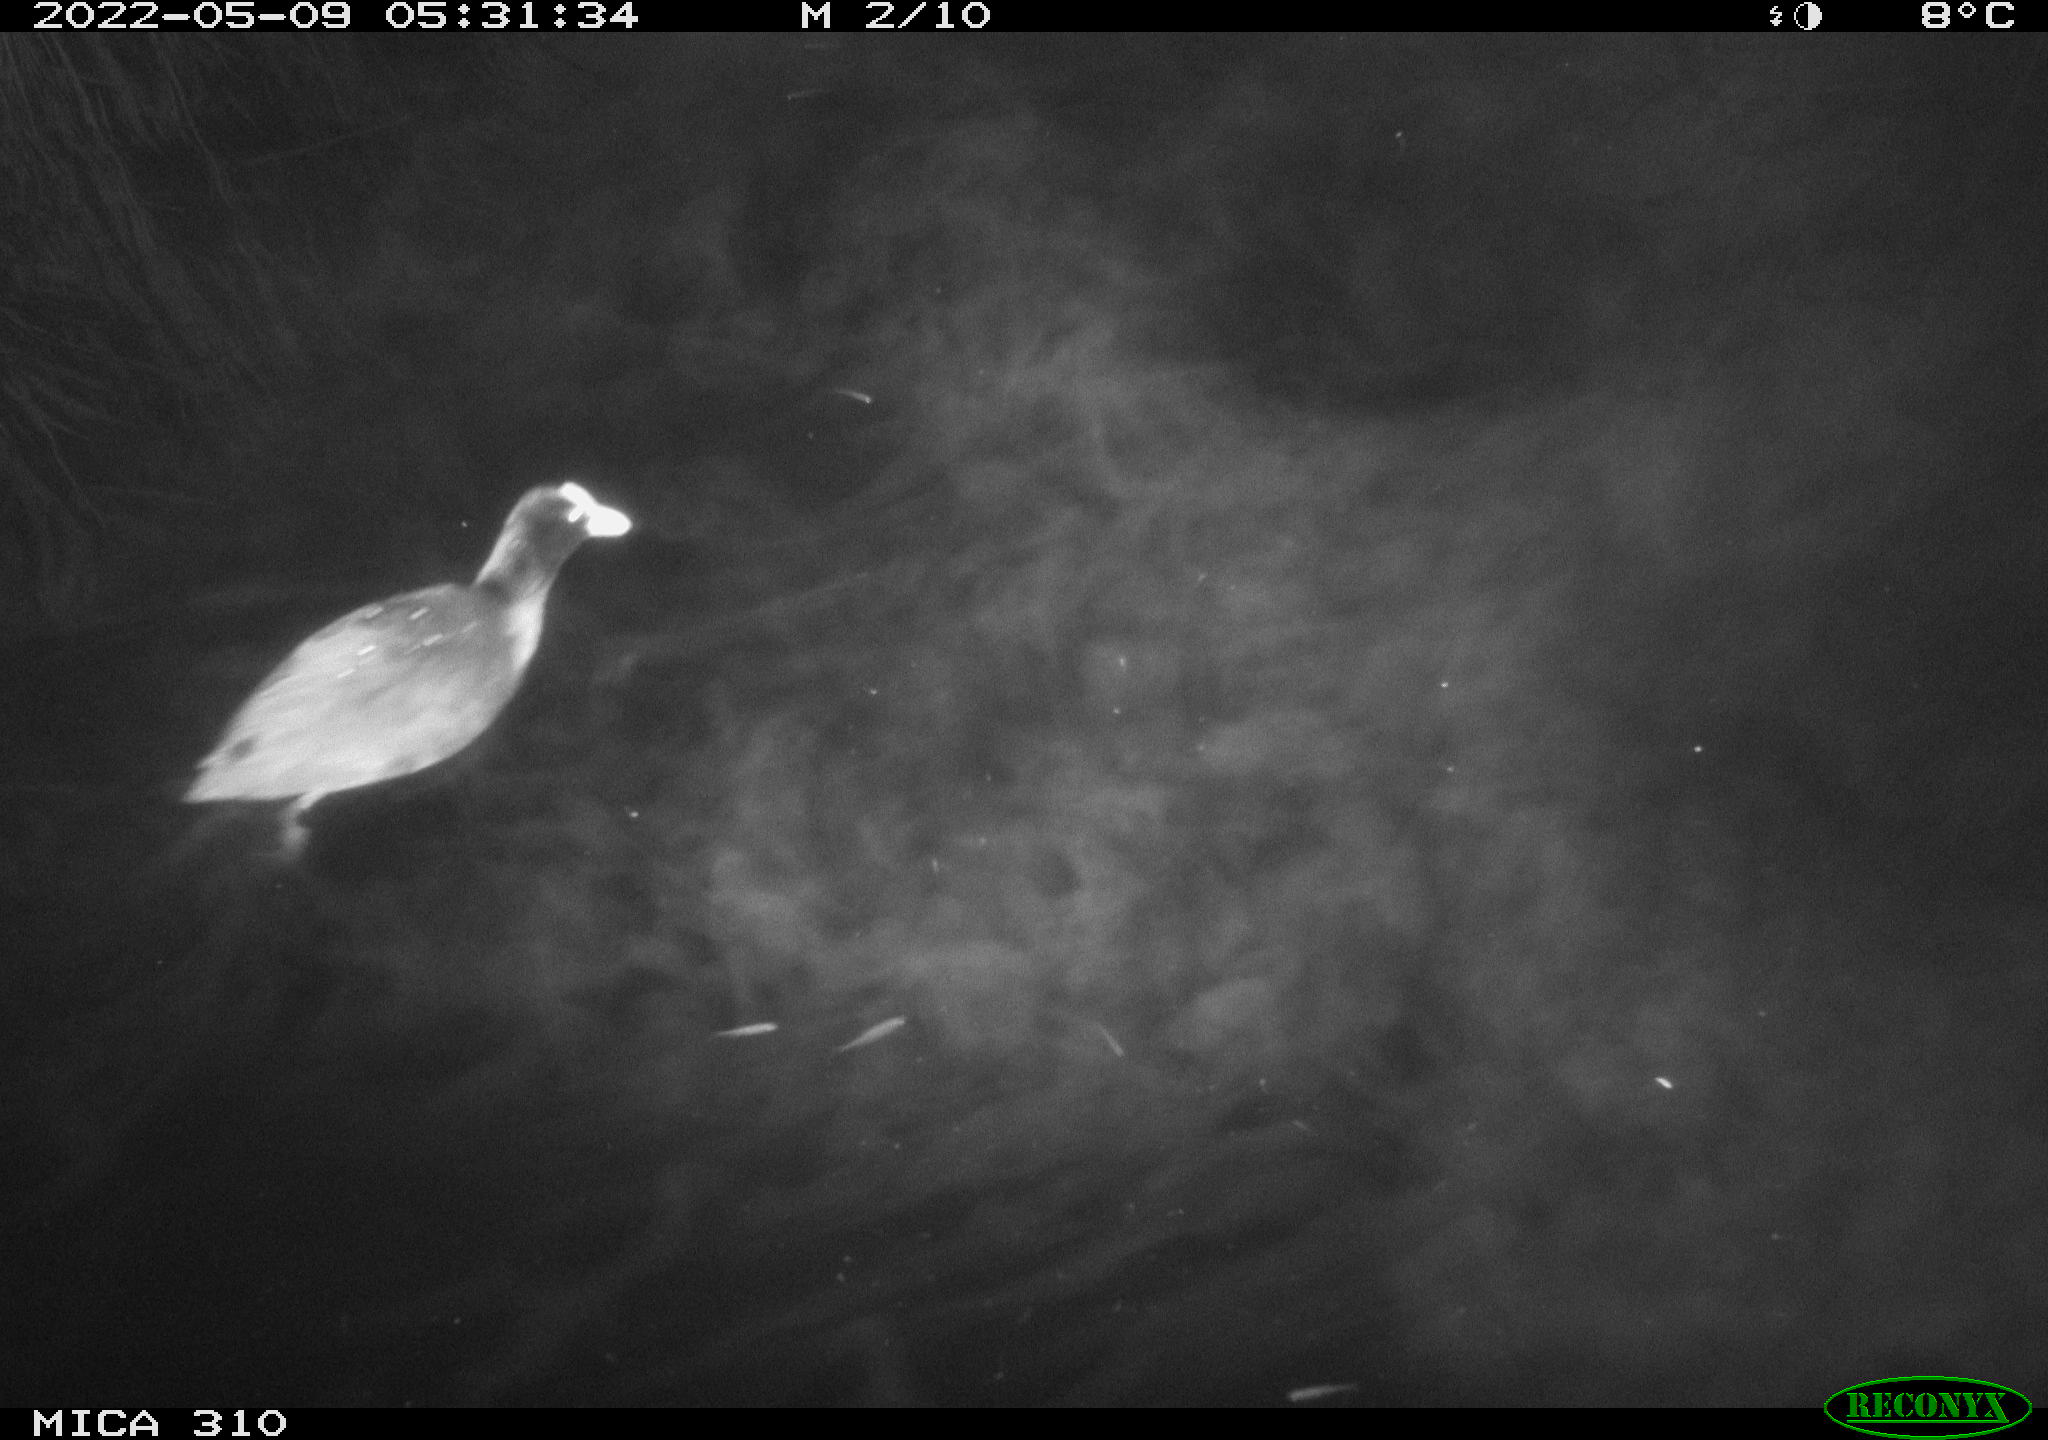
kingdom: Animalia
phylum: Chordata
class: Aves
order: Gruiformes
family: Rallidae
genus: Fulica
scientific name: Fulica atra
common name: Eurasian coot
